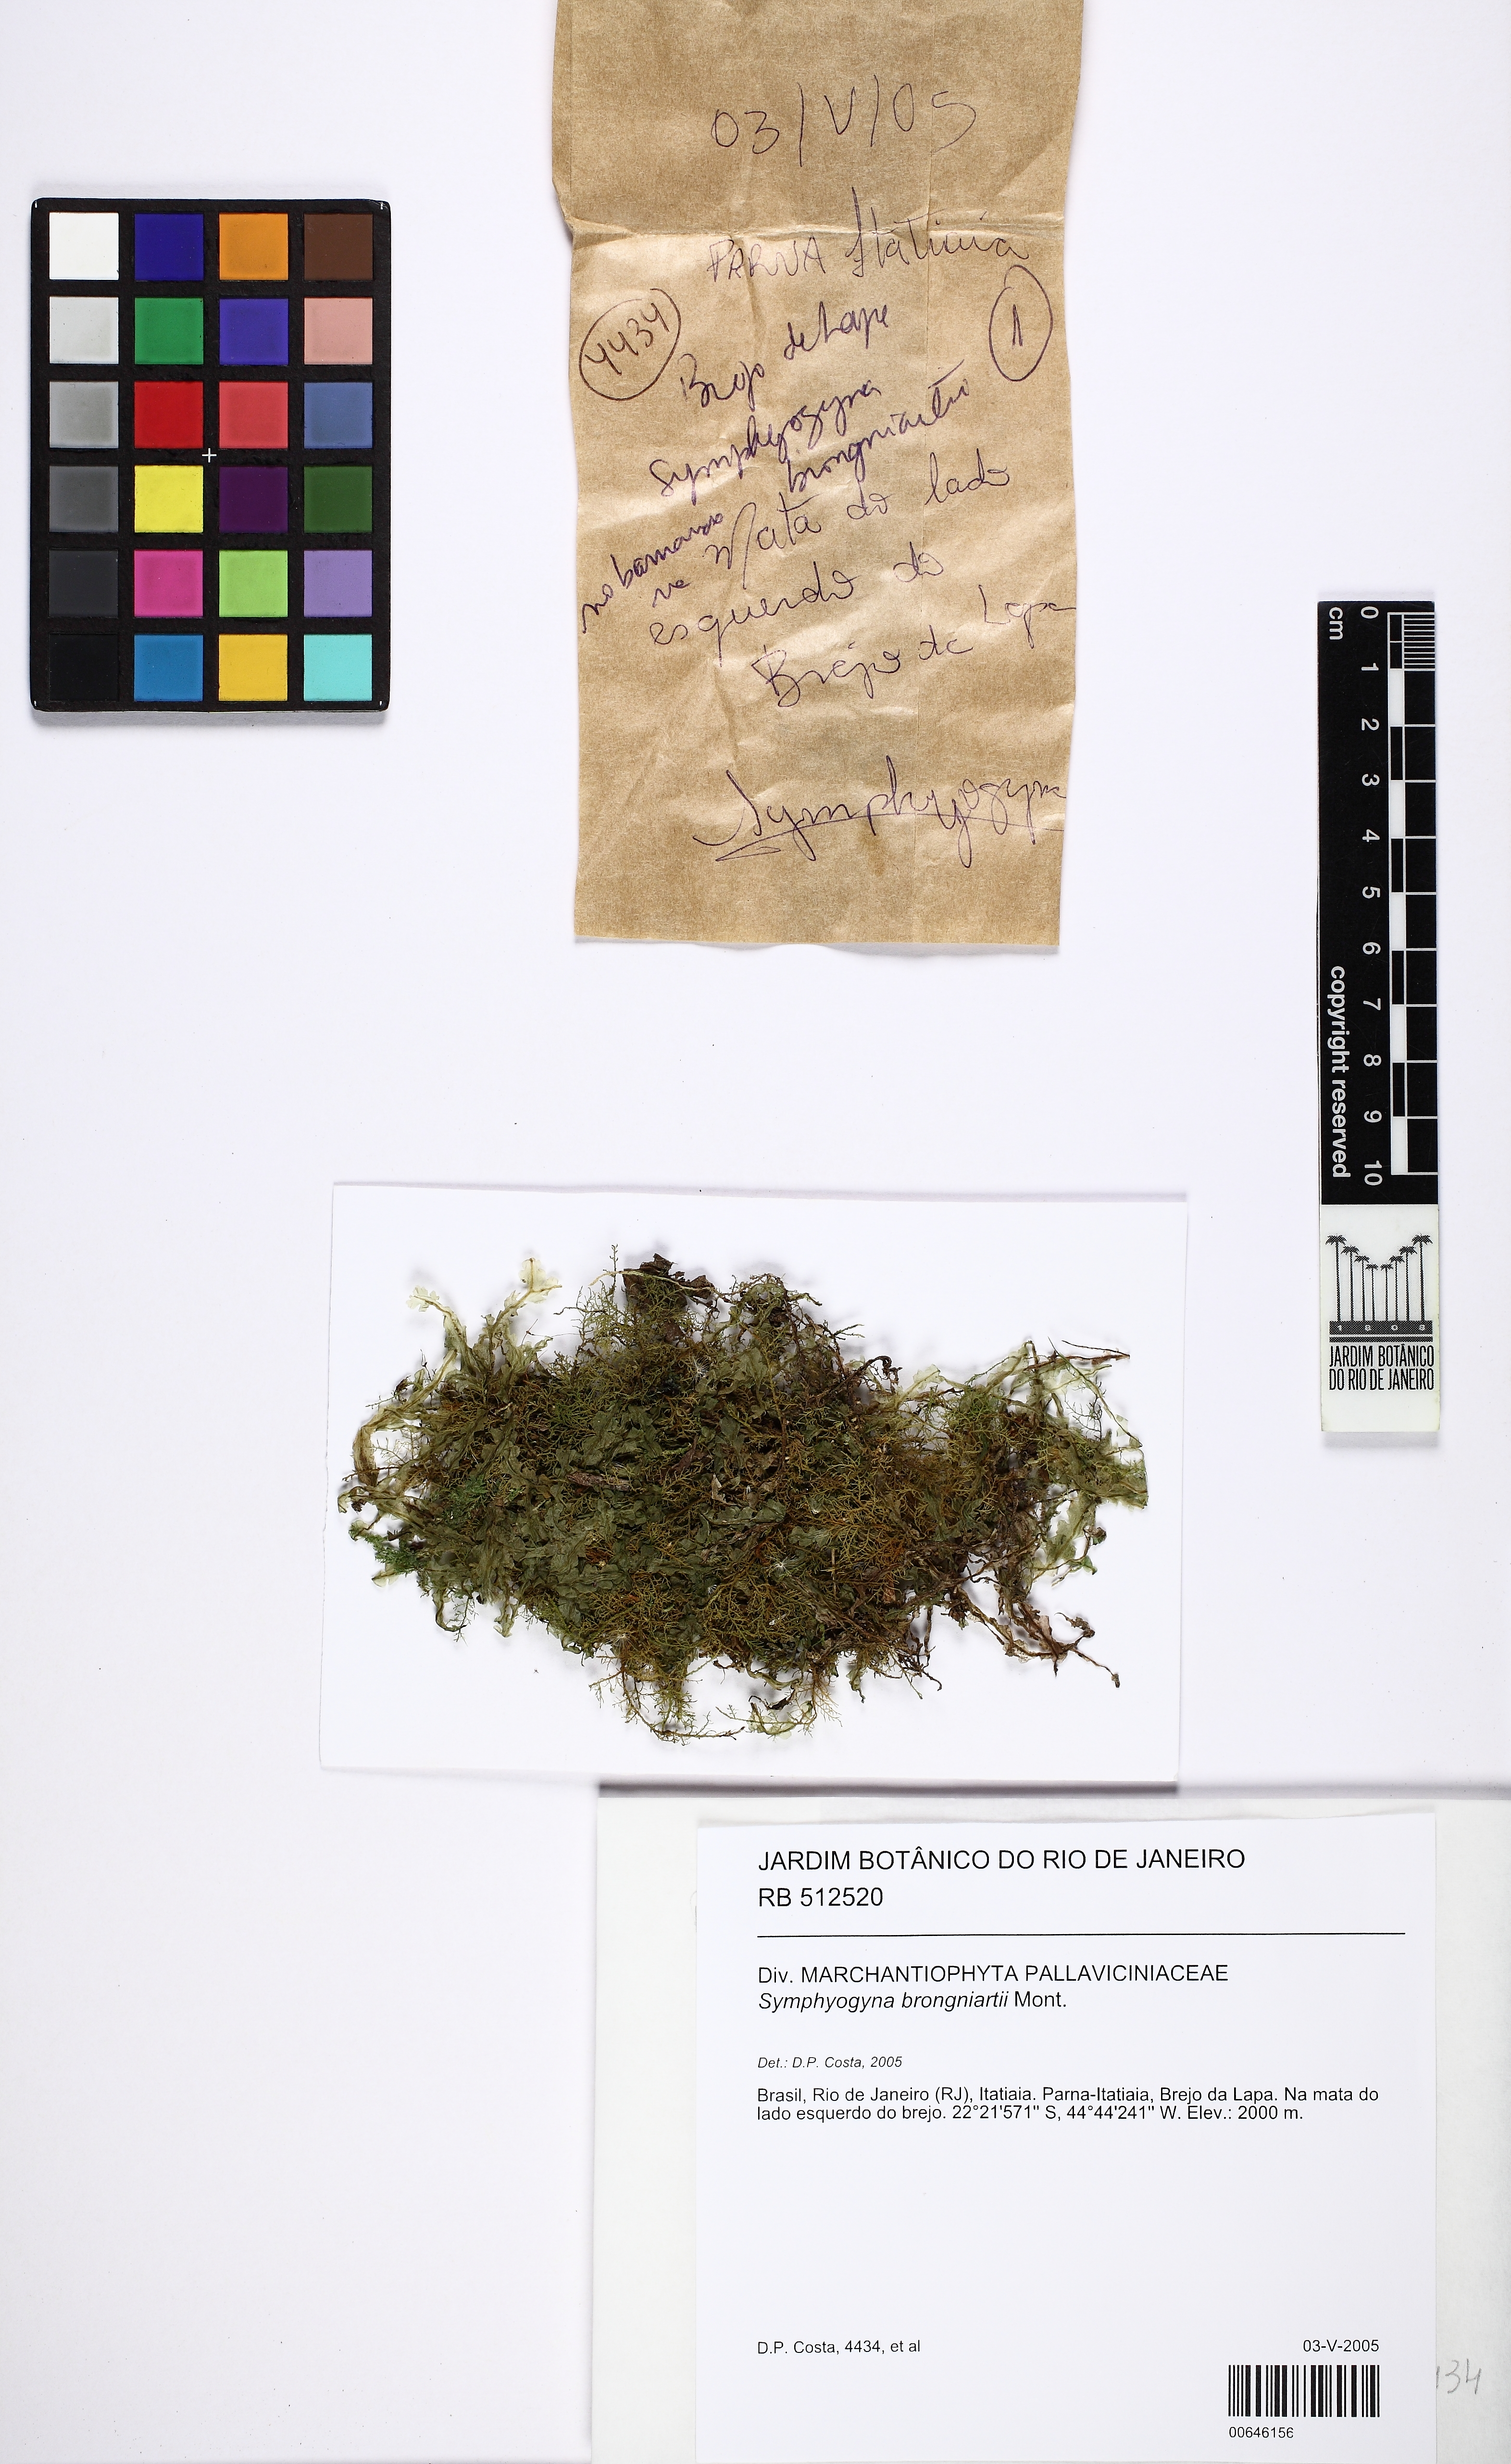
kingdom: Plantae
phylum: Marchantiophyta
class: Jungermanniopsida
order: Pallaviciniales
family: Pallaviciniaceae
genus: Symphyogyna
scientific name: Symphyogyna brongniartii
